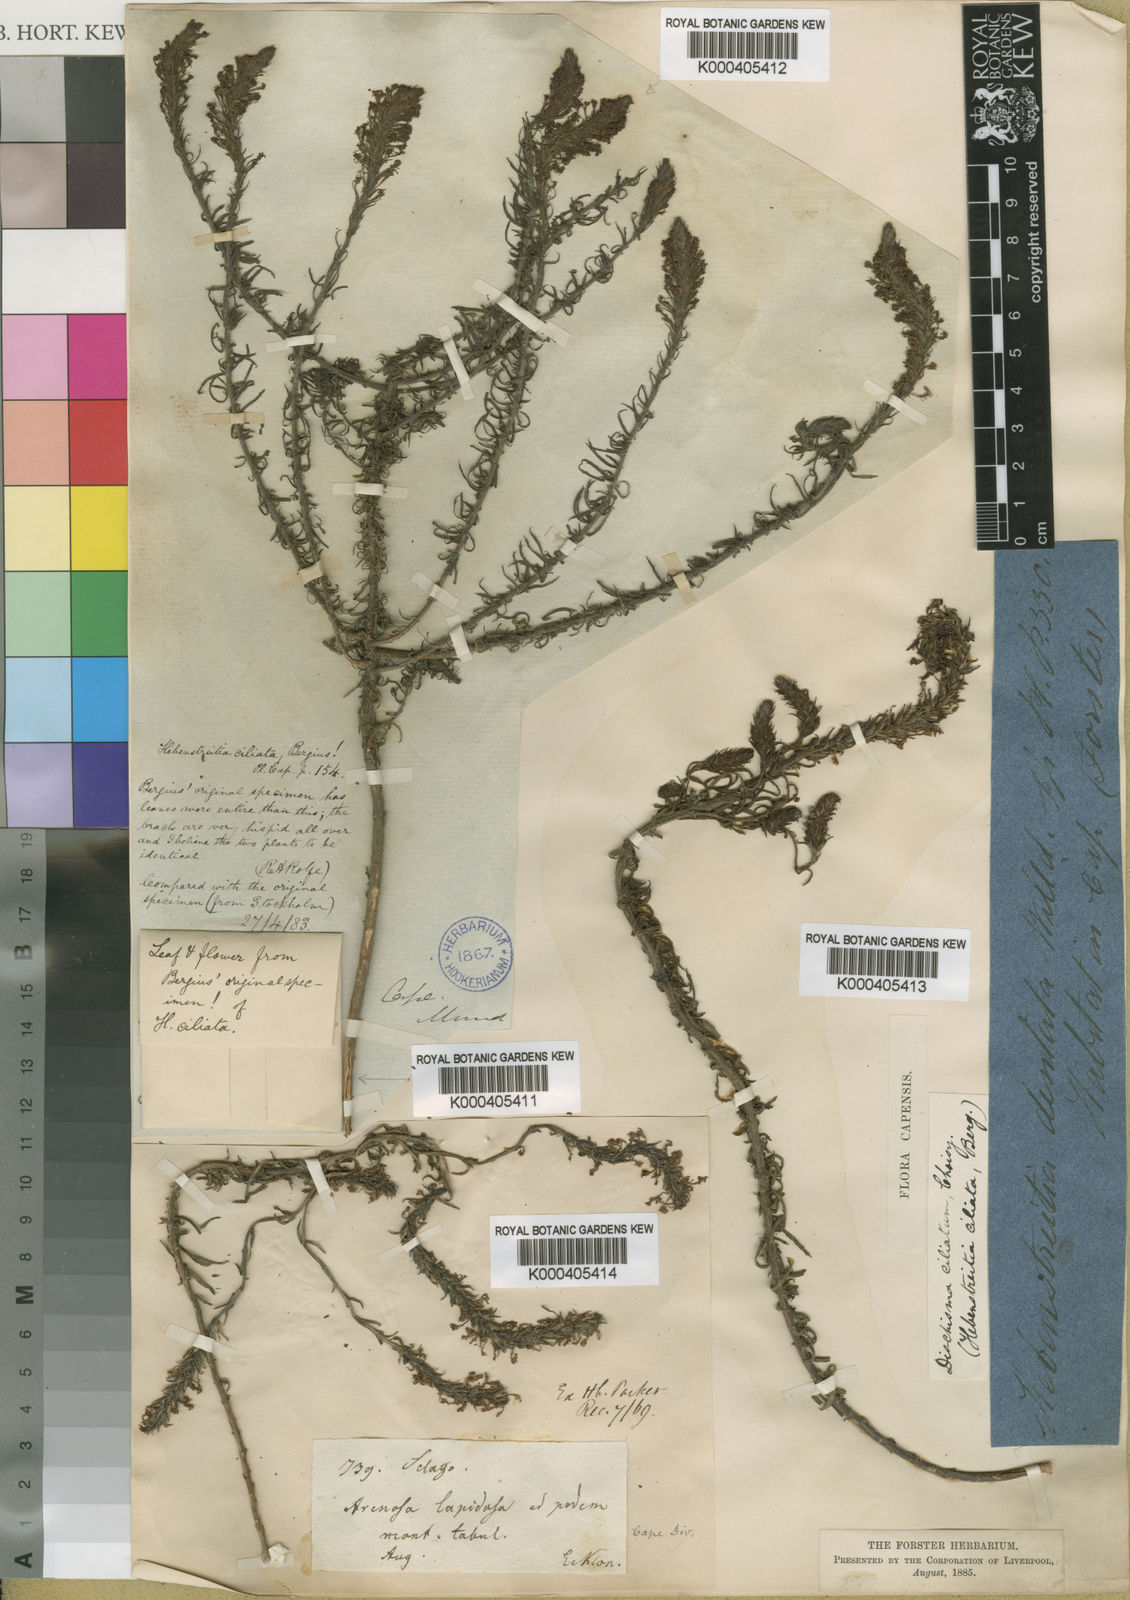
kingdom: Plantae
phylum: Tracheophyta
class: Magnoliopsida
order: Lamiales
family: Scrophulariaceae
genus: Dischisma
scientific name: Dischisma ciliatum
